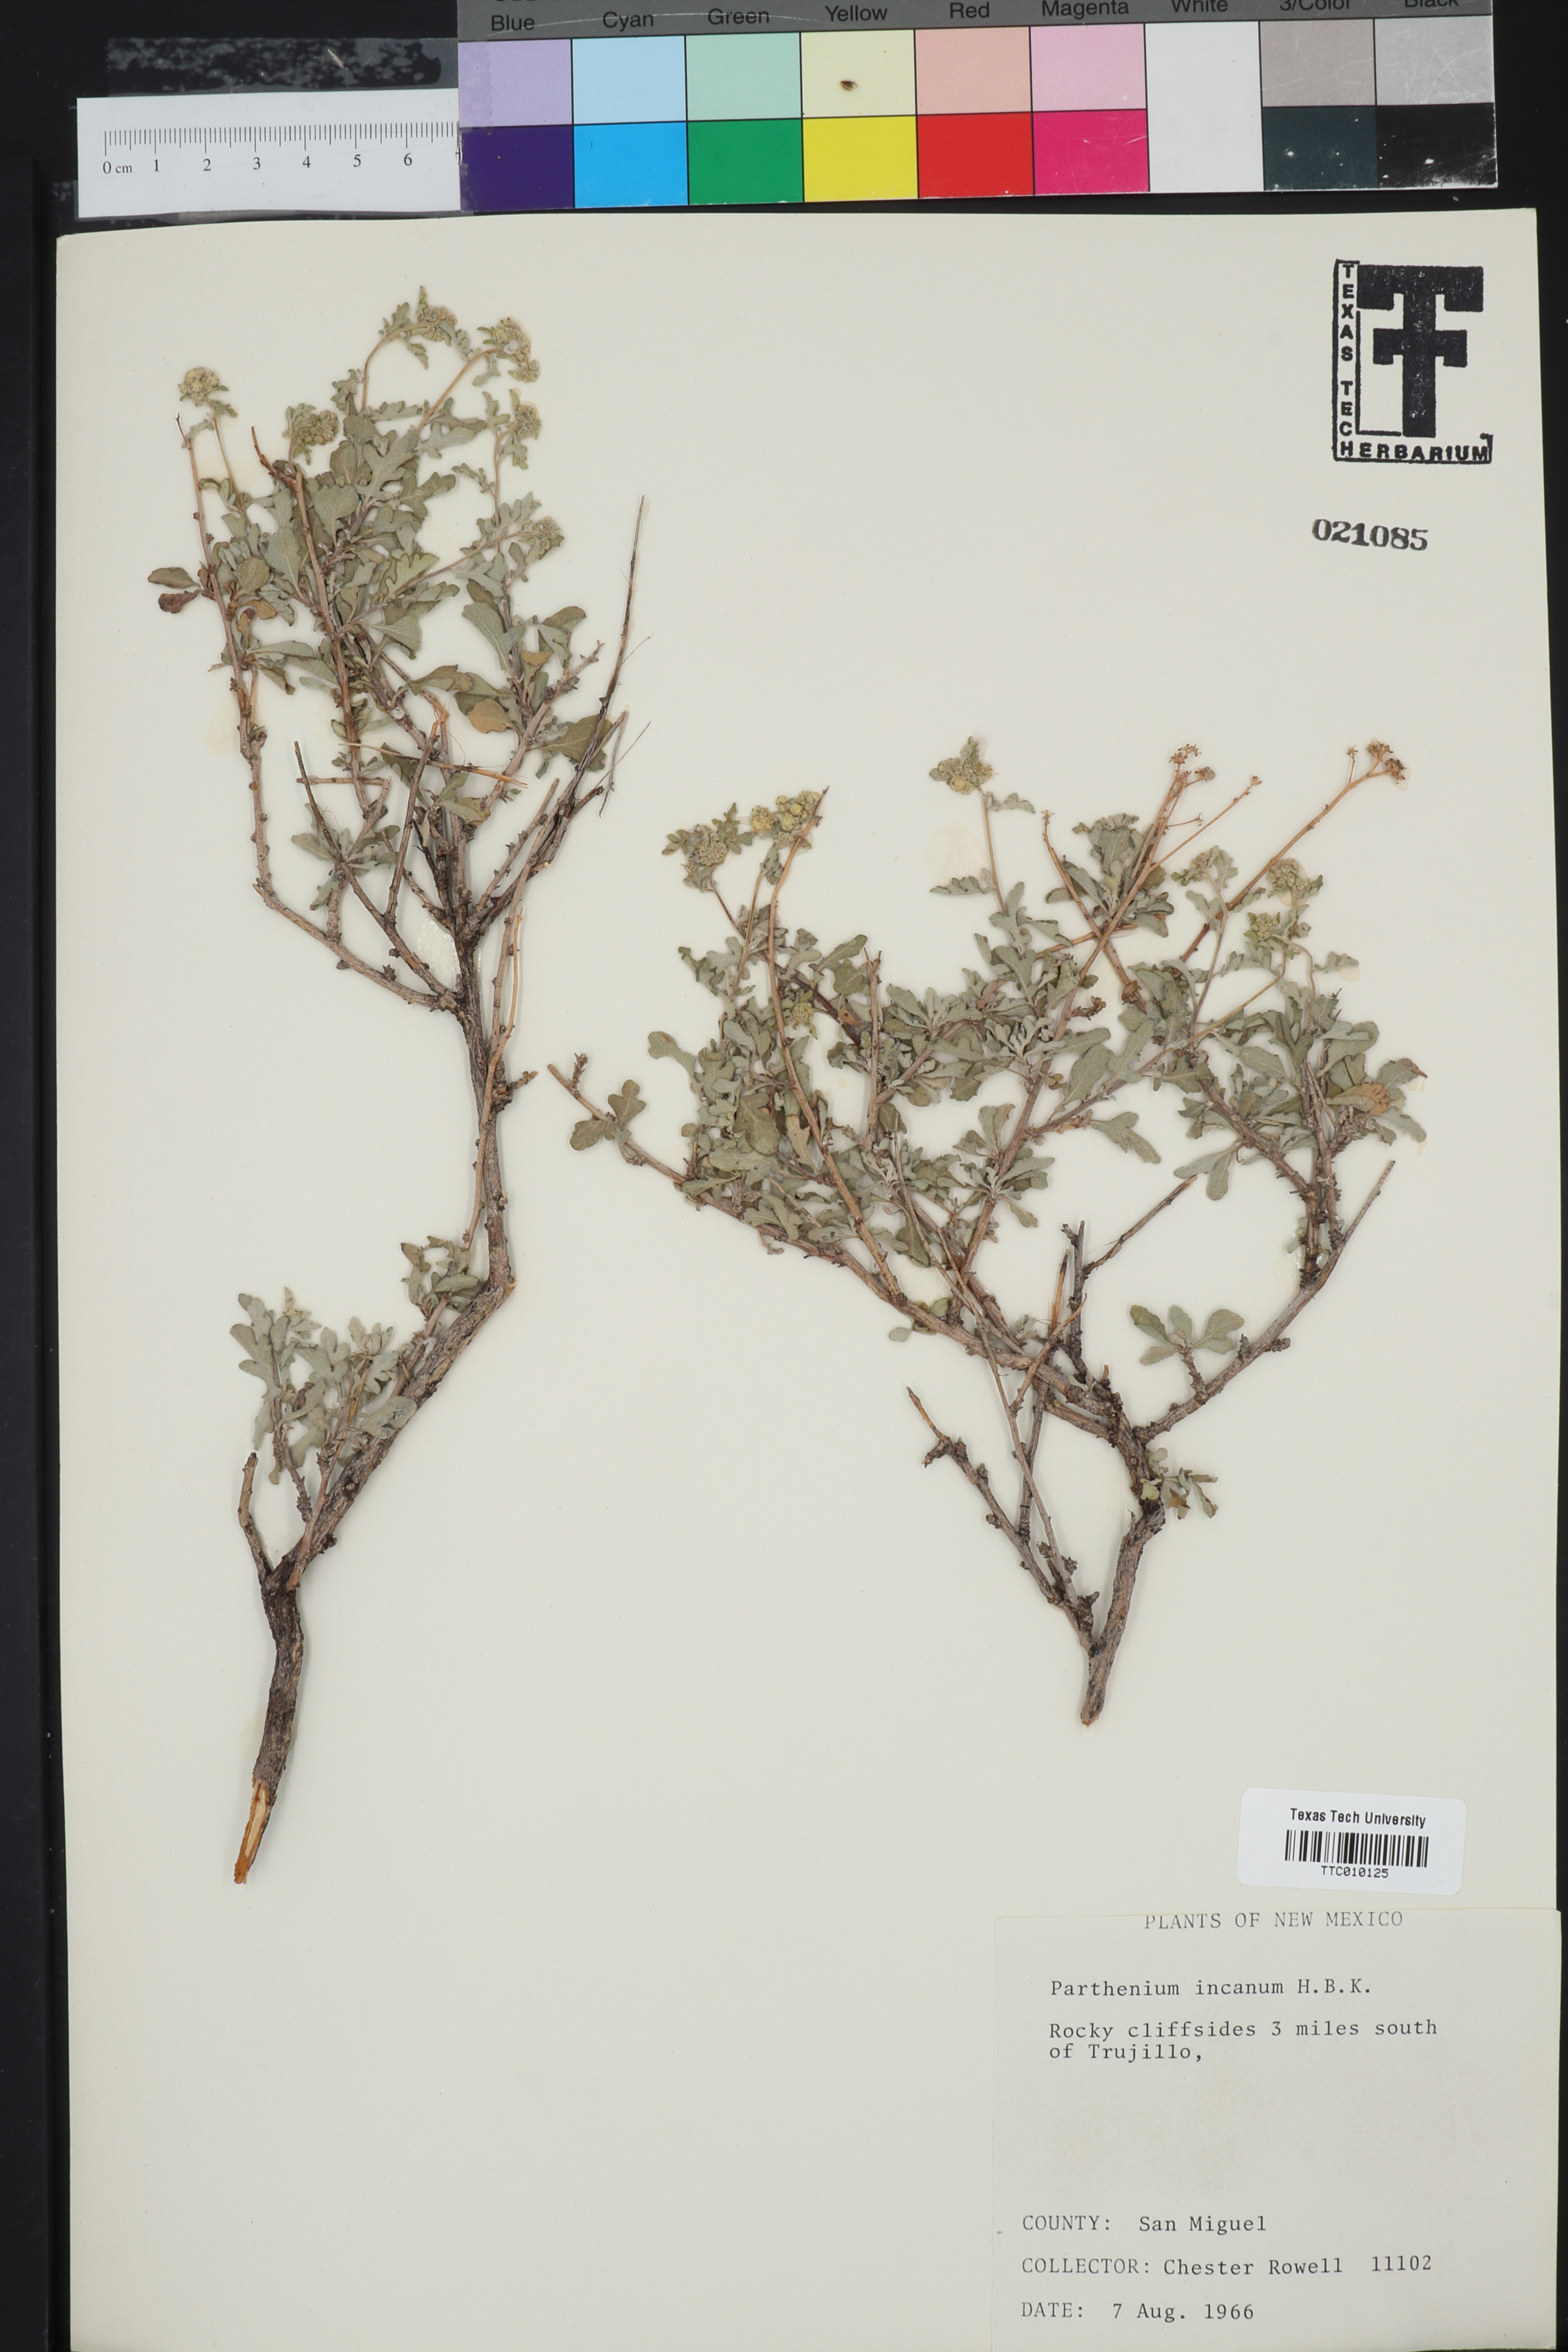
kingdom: Plantae
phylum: Tracheophyta
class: Magnoliopsida
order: Asterales
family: Asteraceae
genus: Parthenium
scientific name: Parthenium incanum
